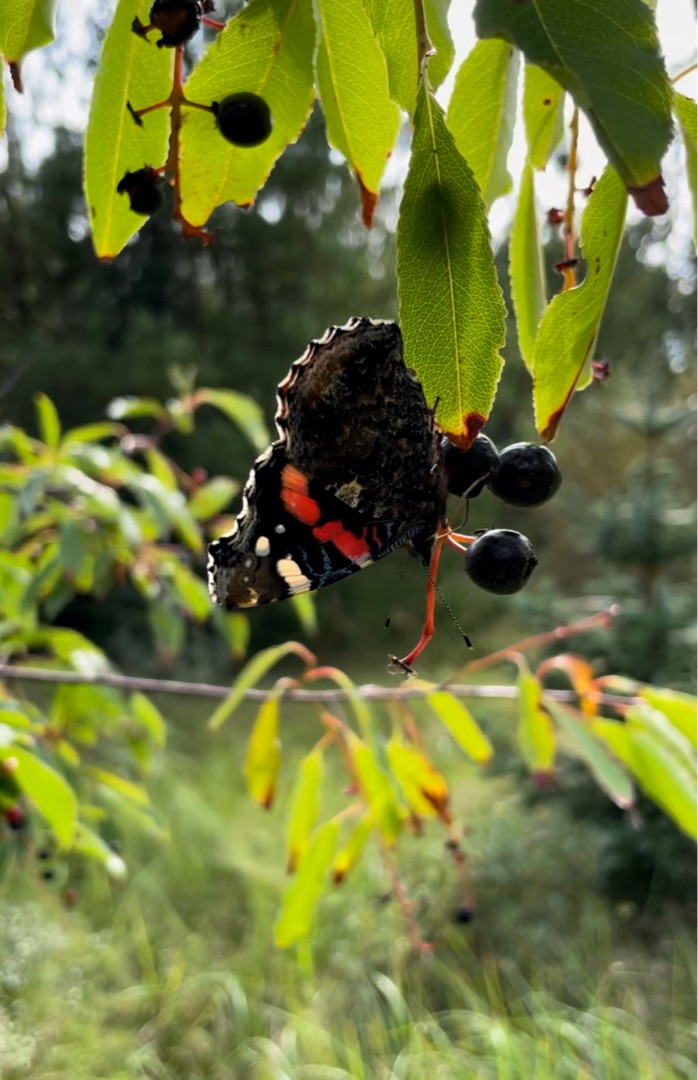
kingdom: Animalia
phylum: Arthropoda
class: Insecta
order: Lepidoptera
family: Nymphalidae
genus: Vanessa
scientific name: Vanessa atalanta
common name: Admiral
